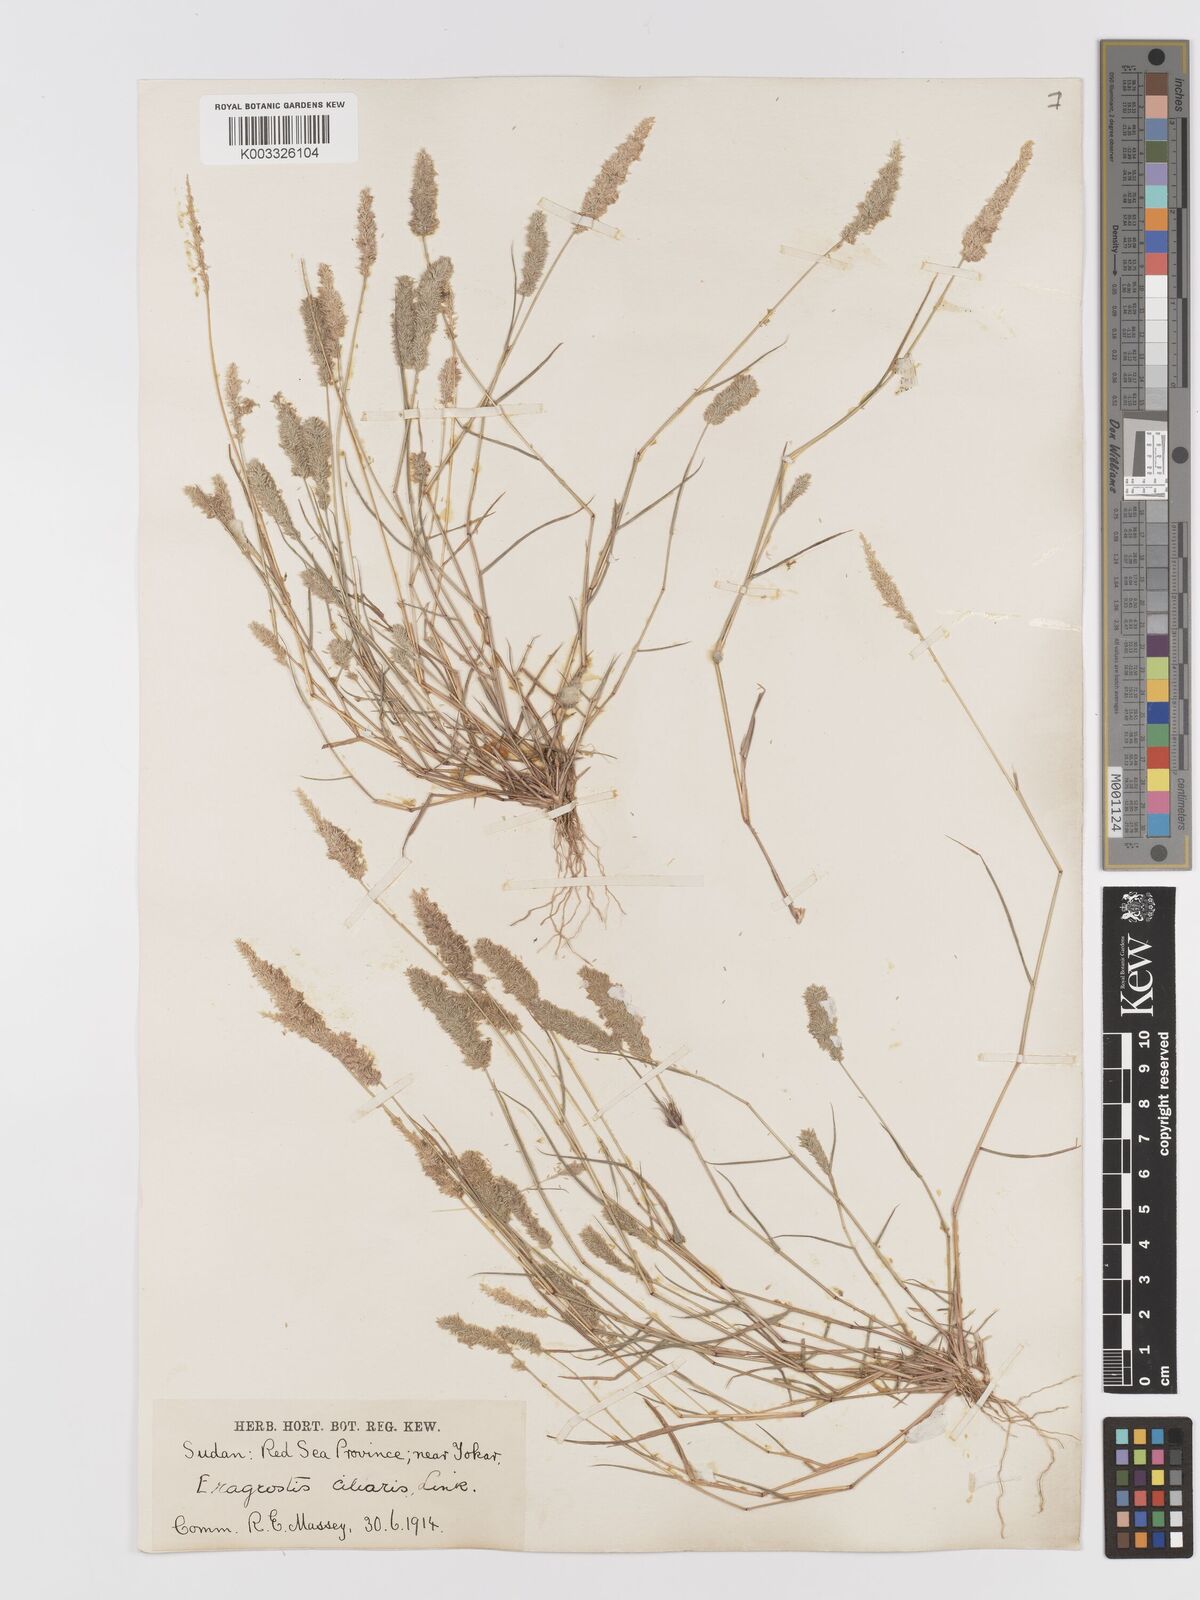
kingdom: Plantae
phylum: Tracheophyta
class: Liliopsida
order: Poales
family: Poaceae
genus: Eragrostis
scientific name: Eragrostis ciliaris
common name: Gophertail lovegrass
